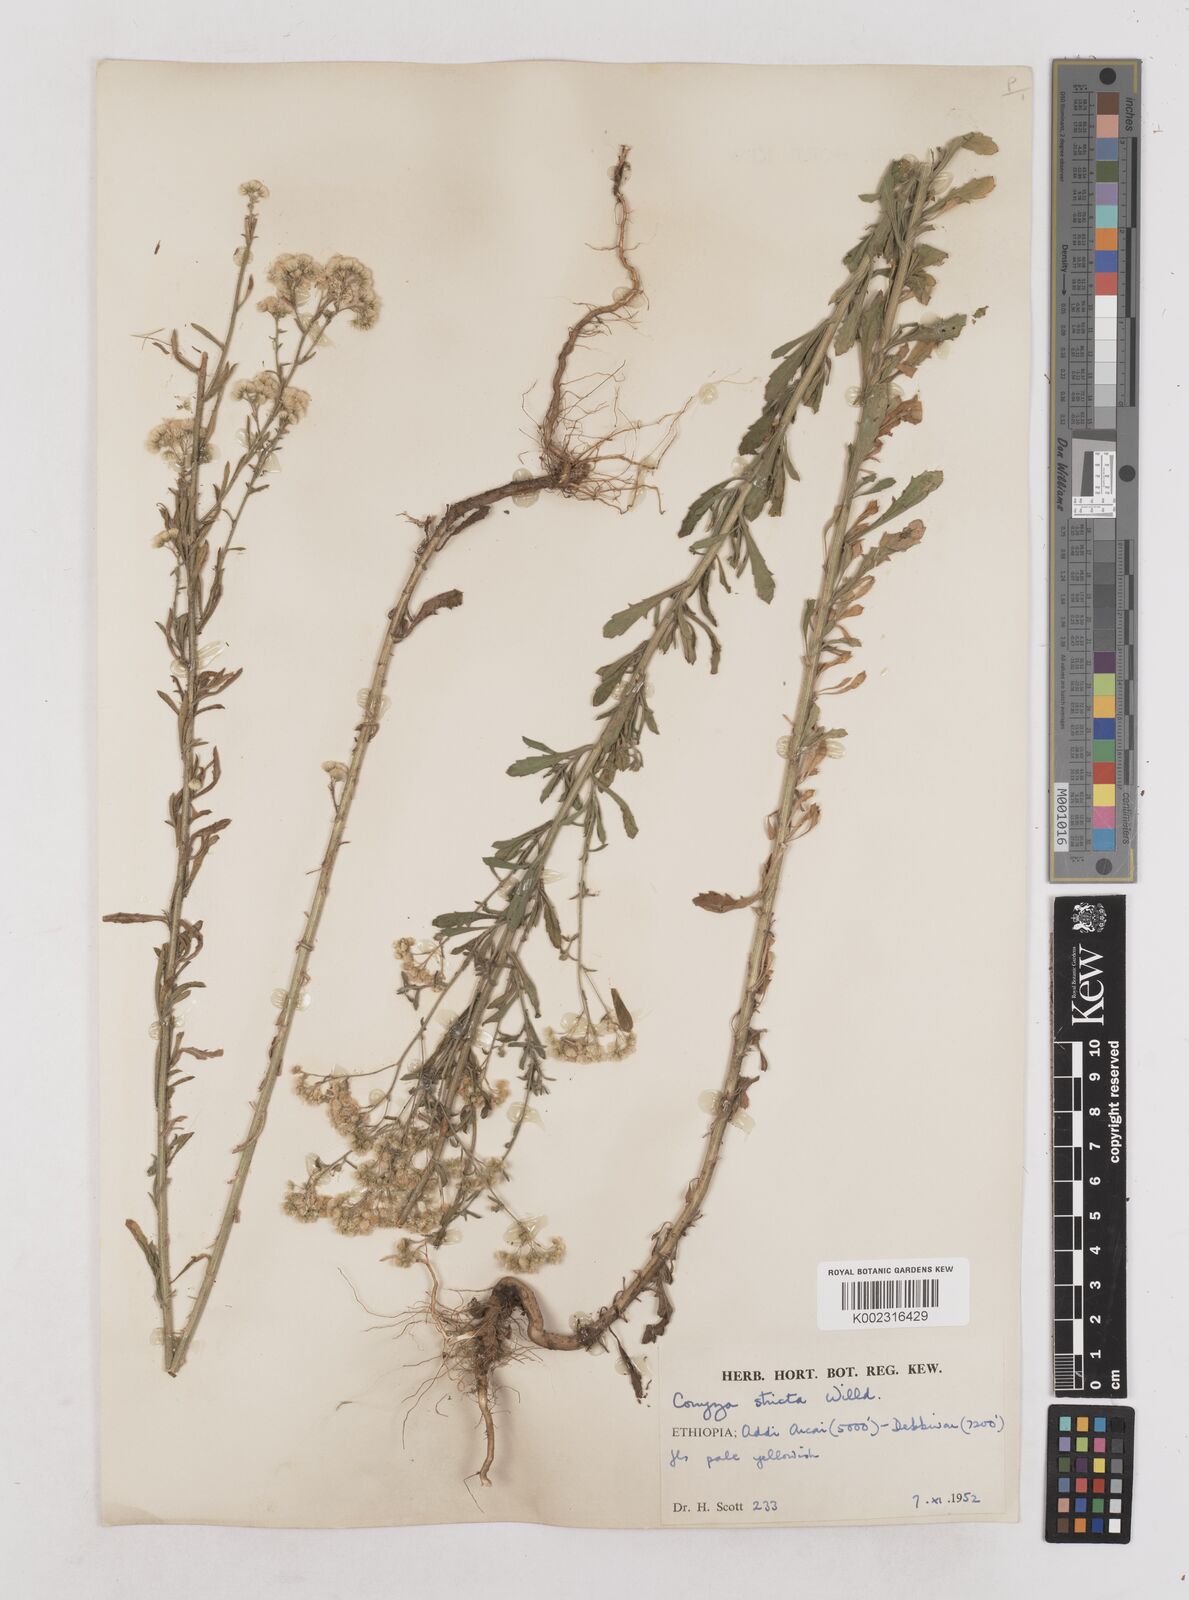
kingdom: Plantae
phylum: Tracheophyta
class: Magnoliopsida
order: Asterales
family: Asteraceae
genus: Nidorella
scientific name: Nidorella triloba
